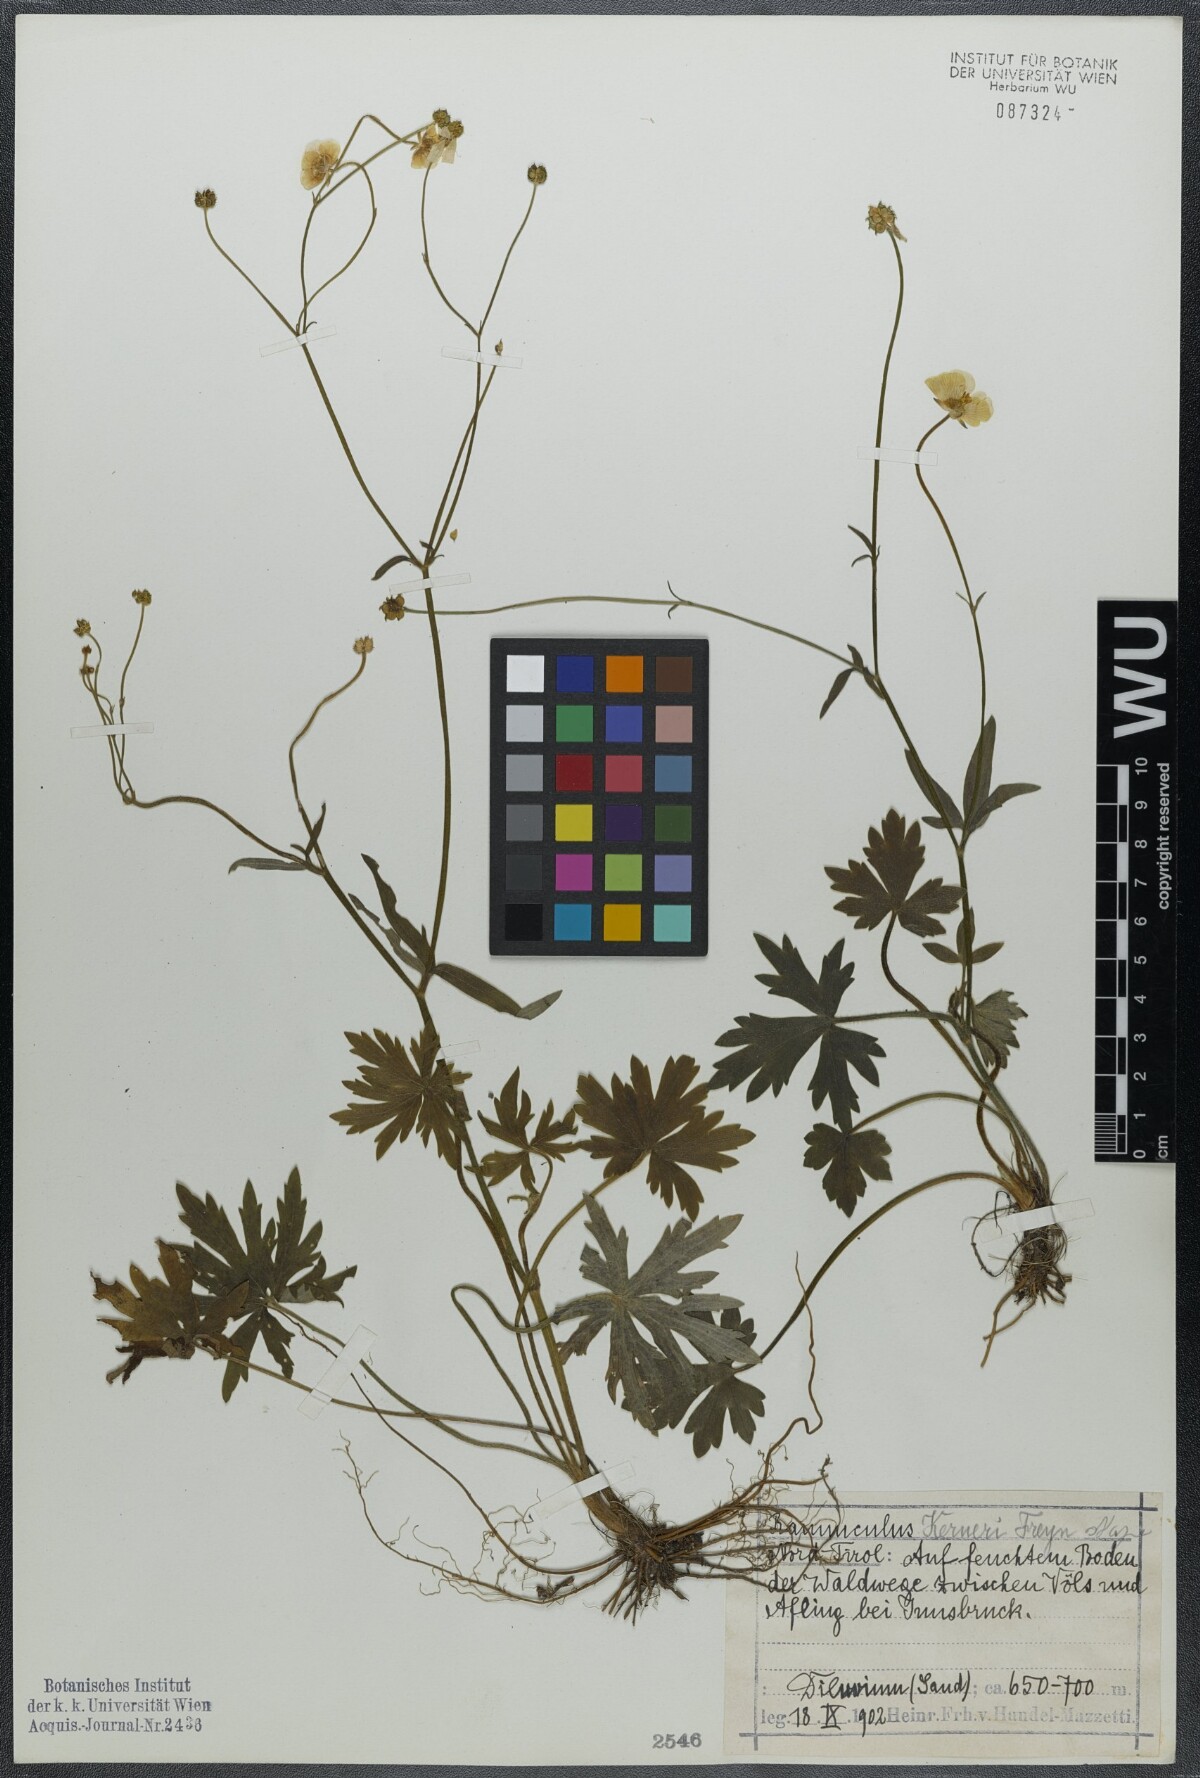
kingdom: Plantae
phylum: Tracheophyta
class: Magnoliopsida
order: Ranunculales
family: Ranunculaceae
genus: Ranunculus
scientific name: Ranunculus acris
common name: Meadow buttercup
